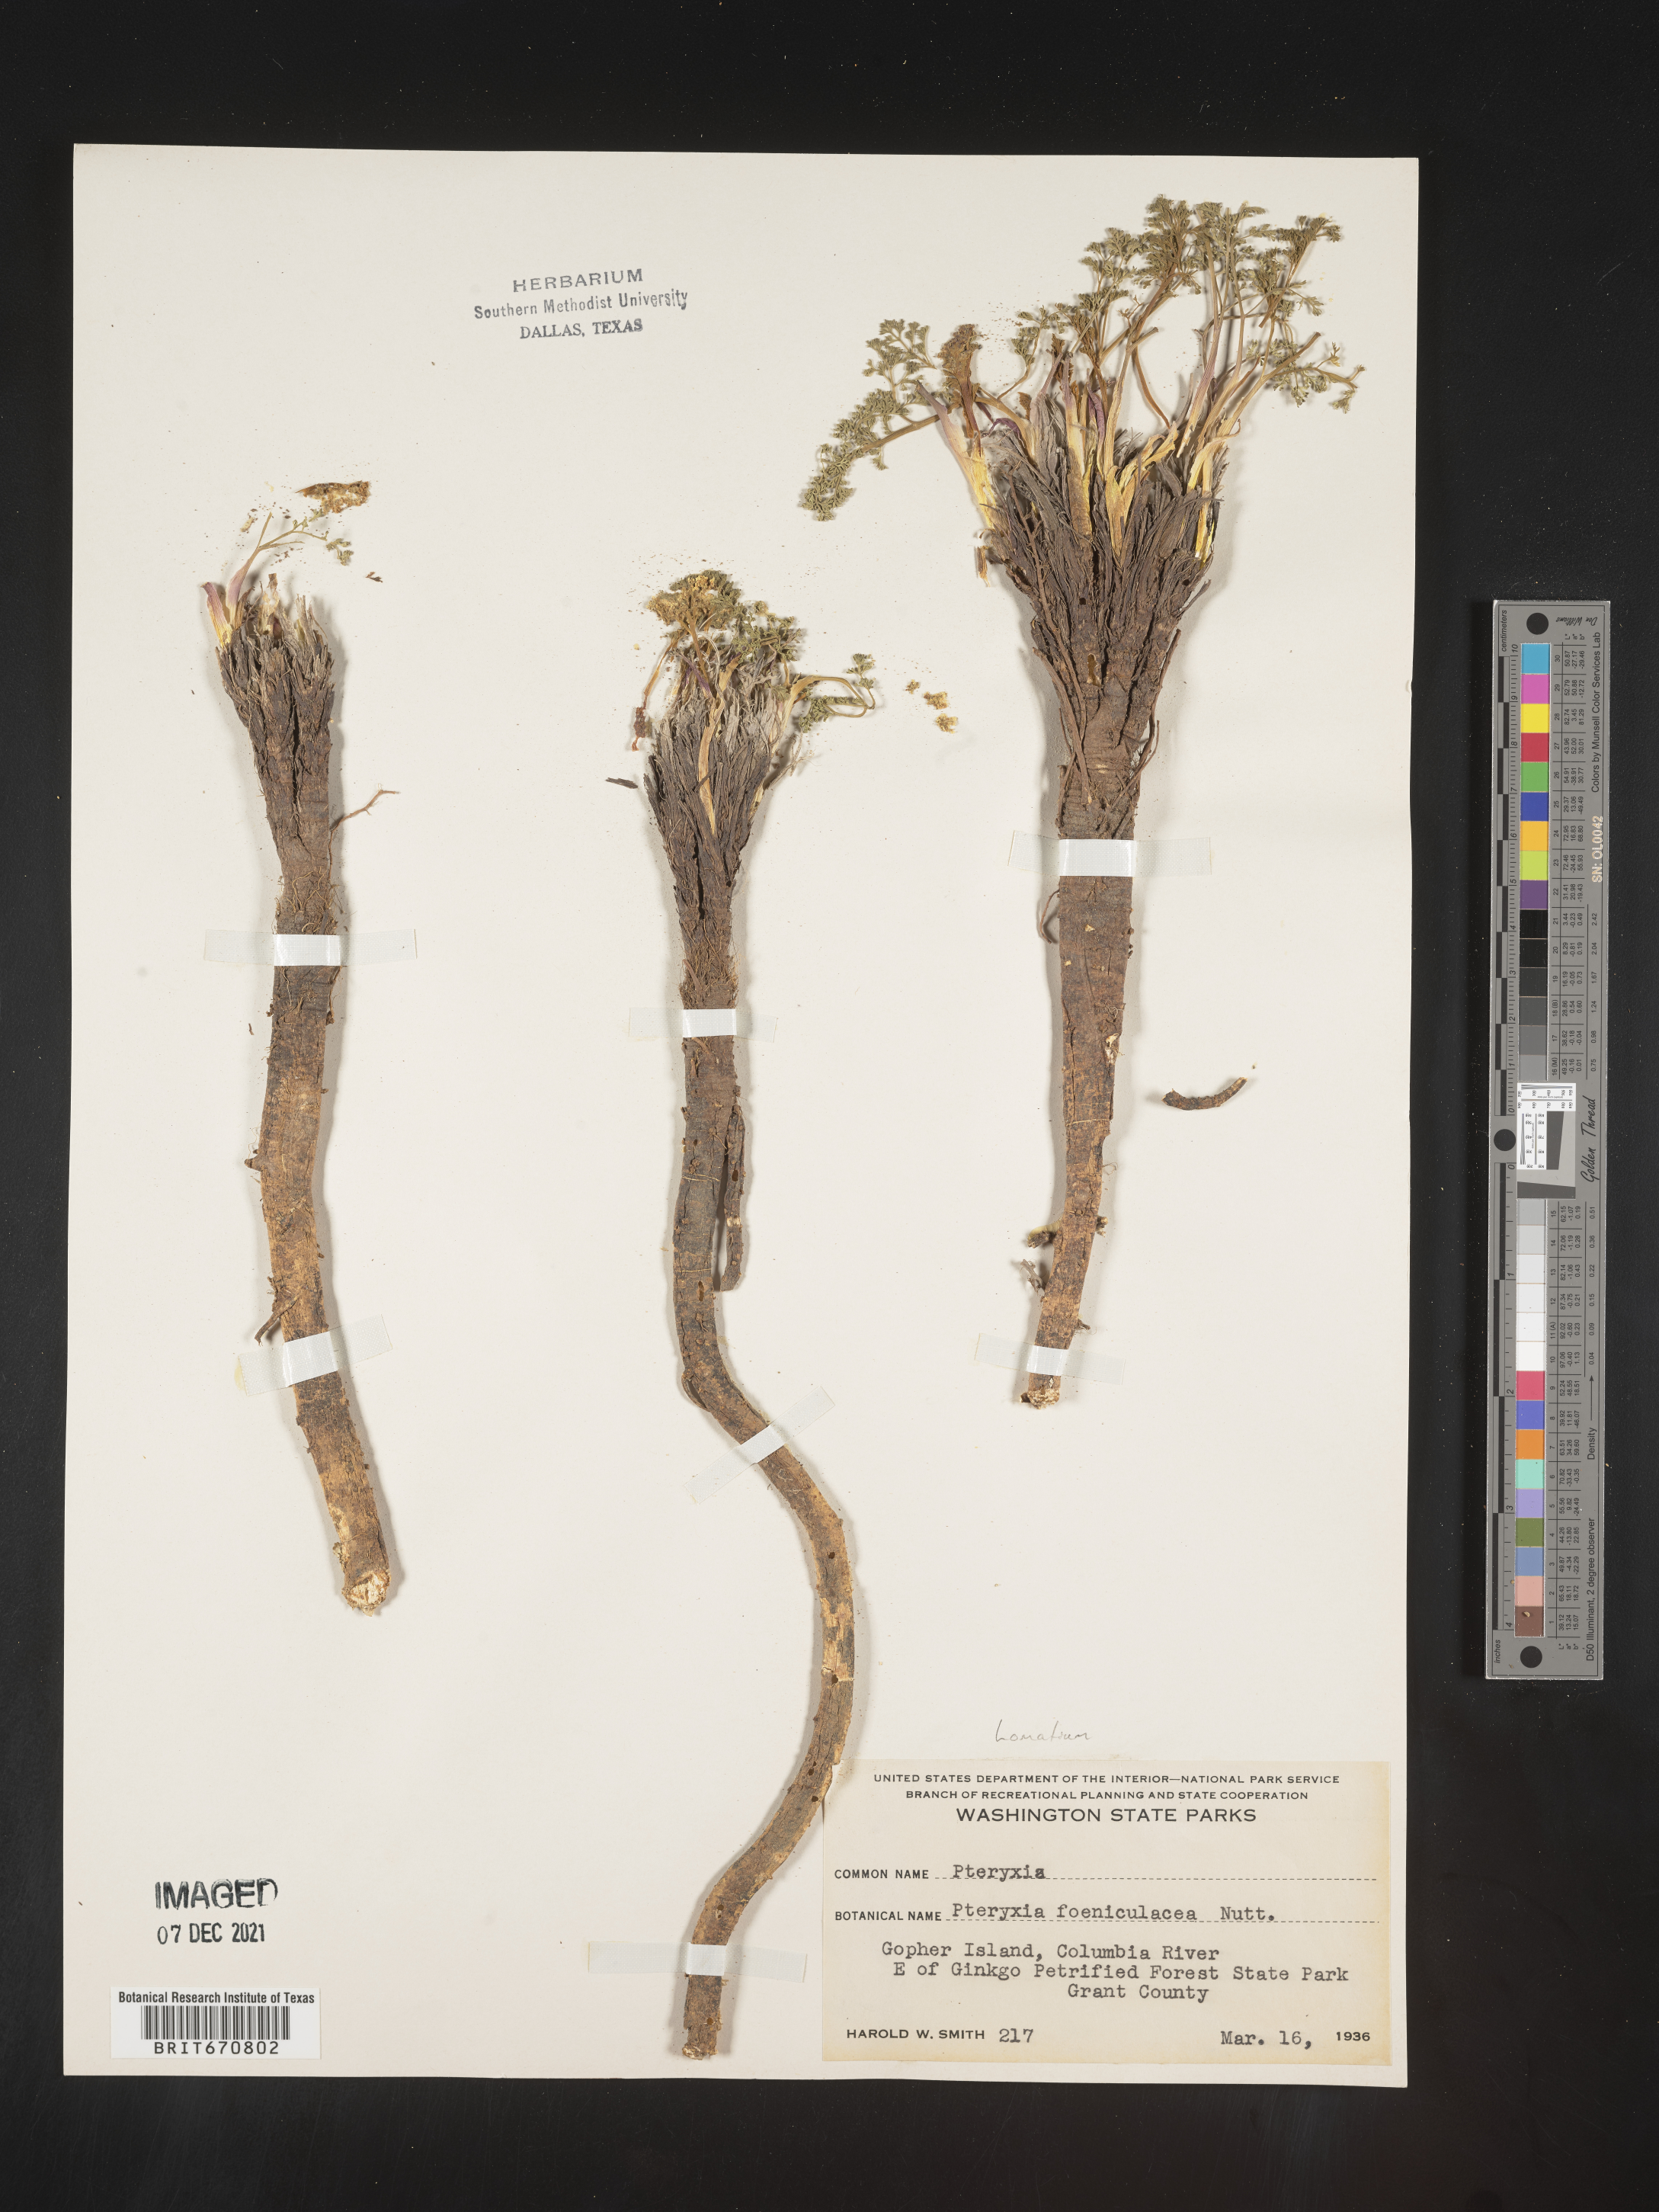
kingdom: Plantae
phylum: Tracheophyta
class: Magnoliopsida
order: Apiales
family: Apiaceae
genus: Lomatium
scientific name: Lomatium
